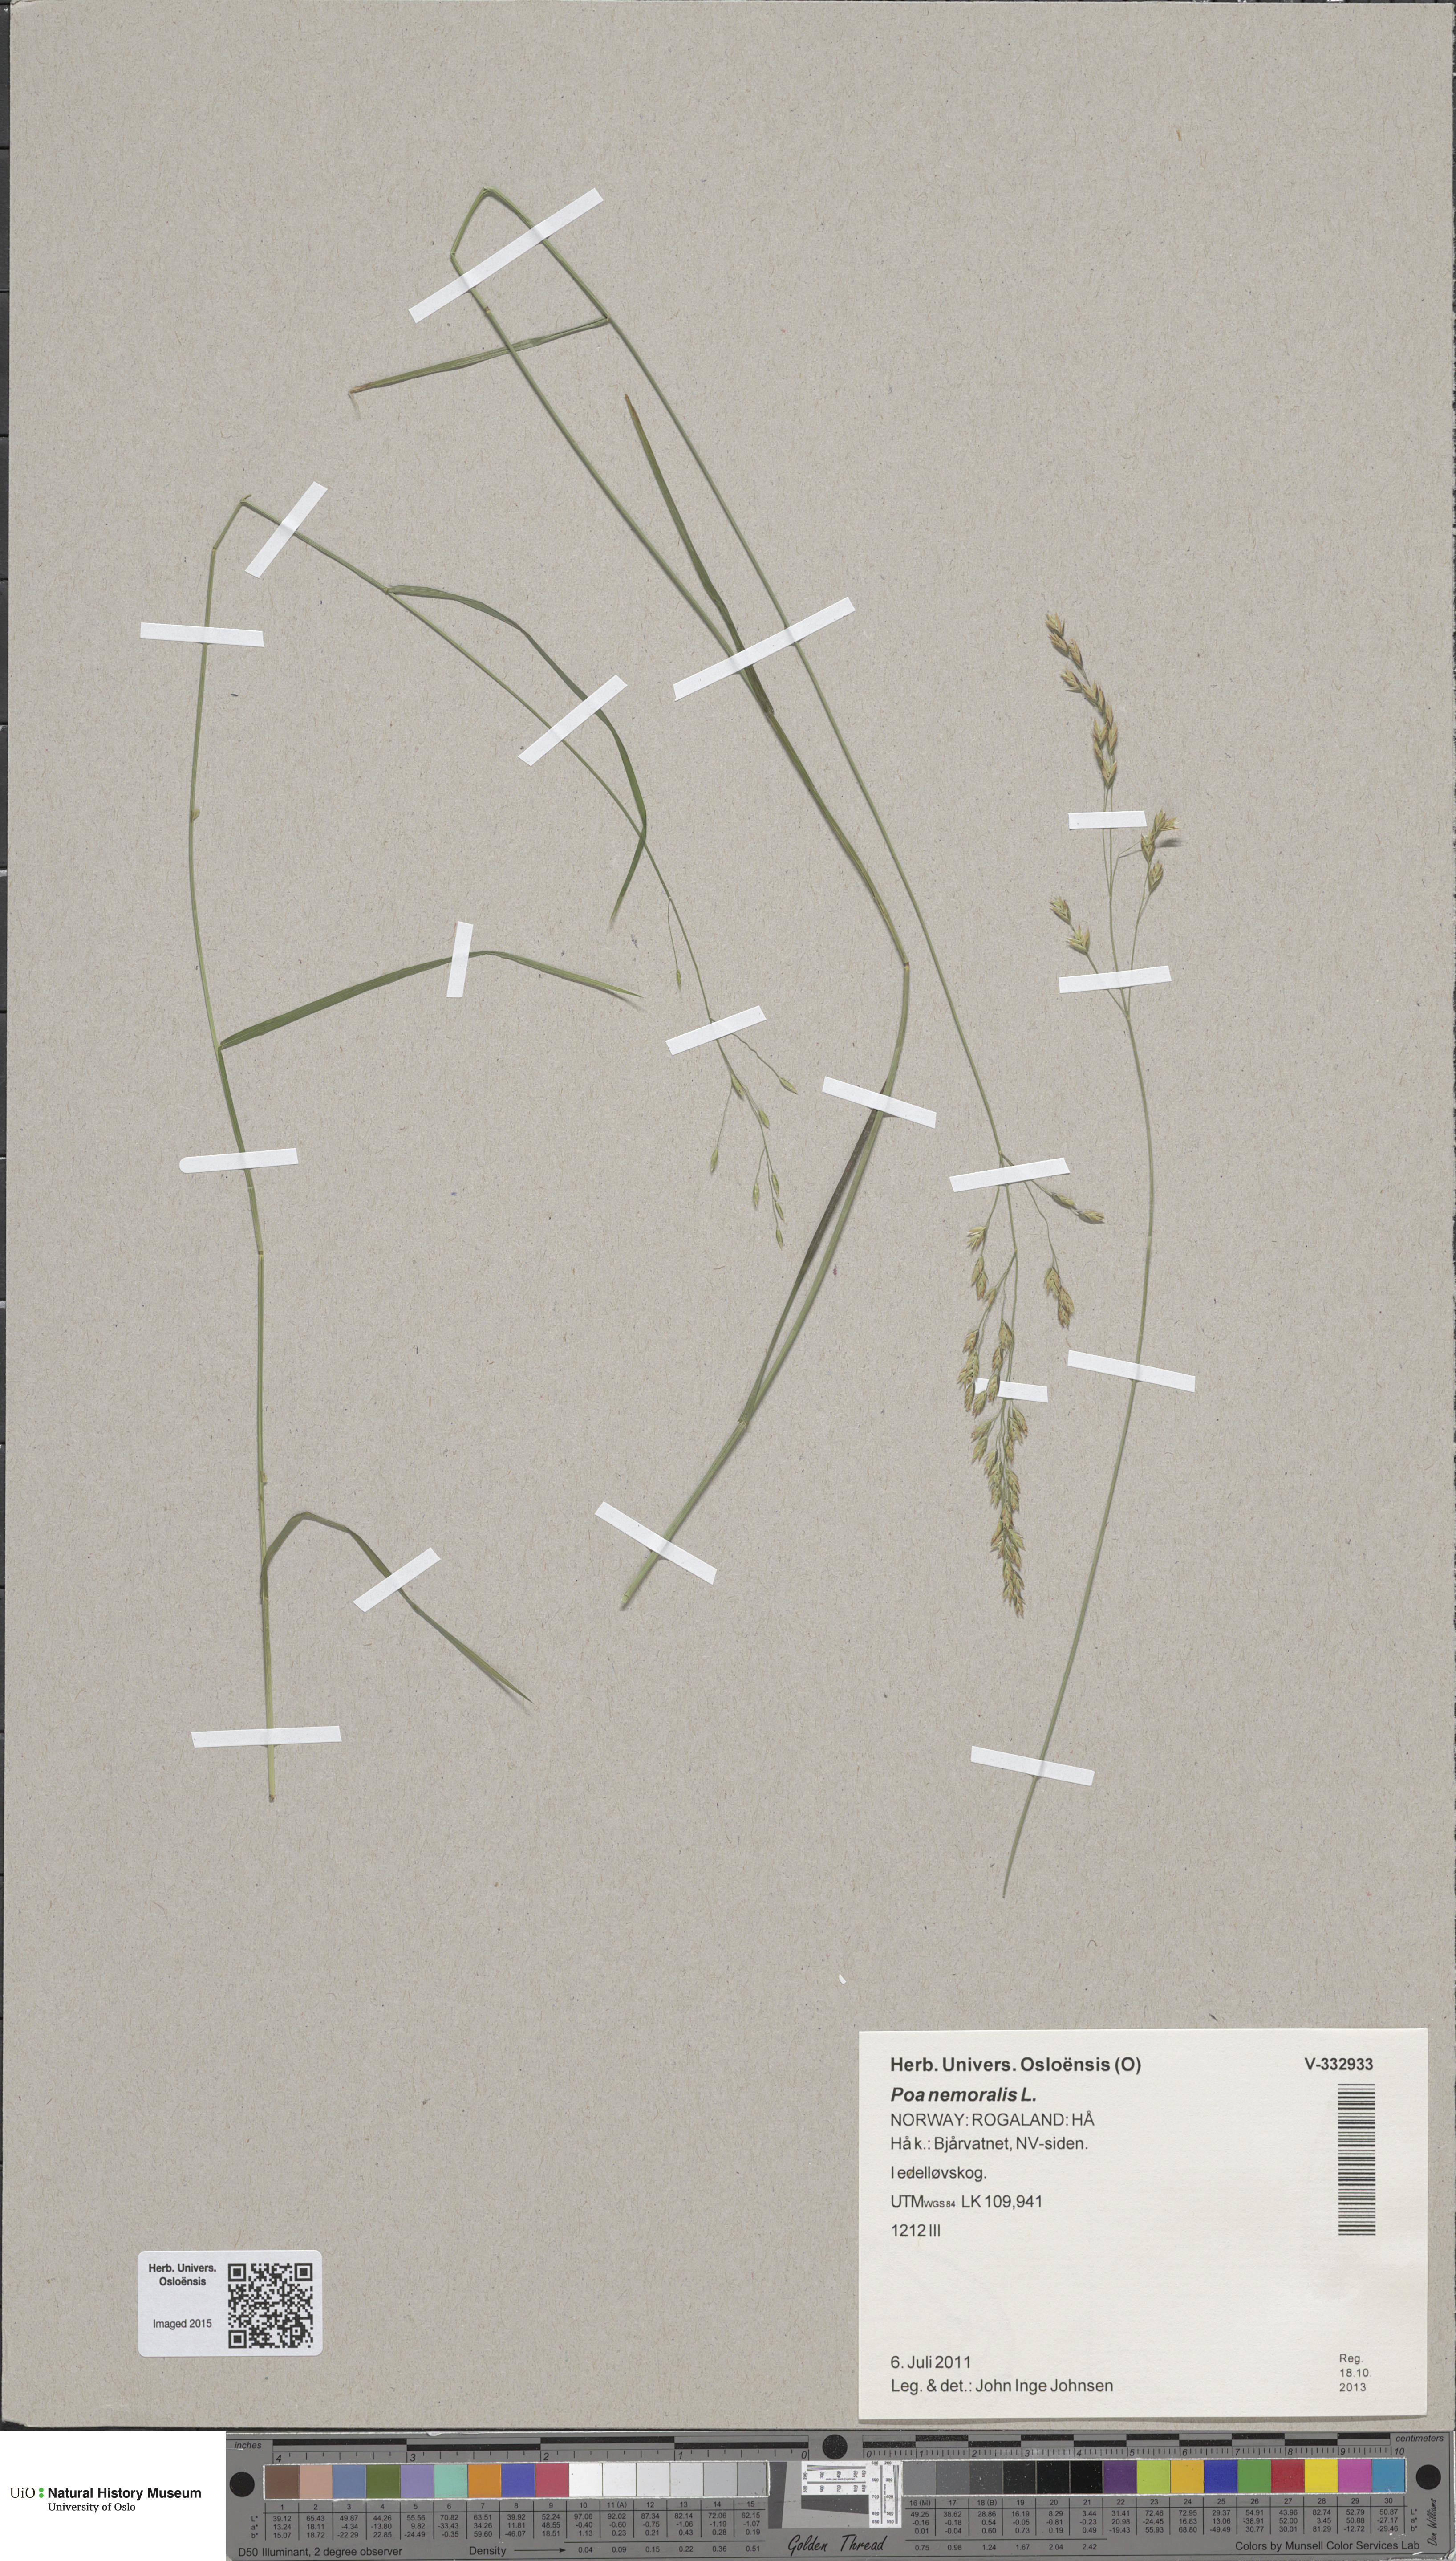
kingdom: Plantae
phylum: Tracheophyta
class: Liliopsida
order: Poales
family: Poaceae
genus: Poa
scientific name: Poa nemoralis
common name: Wood bluegrass
